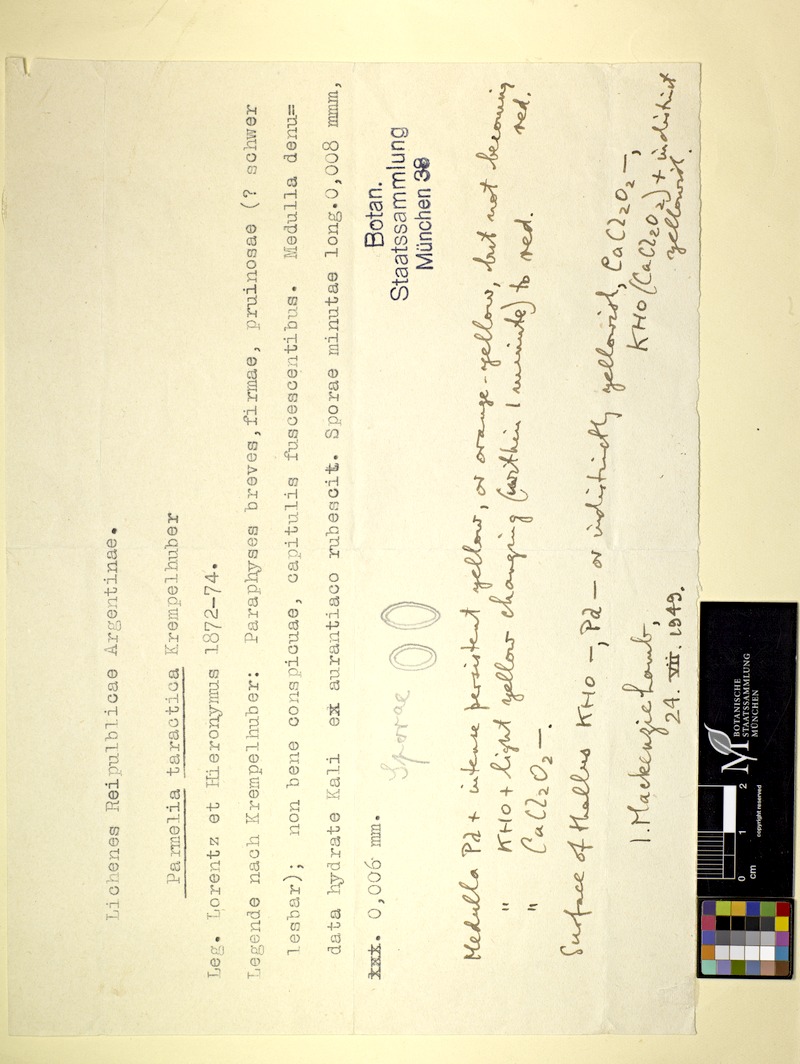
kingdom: Fungi
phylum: Ascomycota
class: Lecanoromycetes
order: Lecanorales
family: Parmeliaceae
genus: Xanthoparmelia
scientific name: Xanthoparmelia taractica
